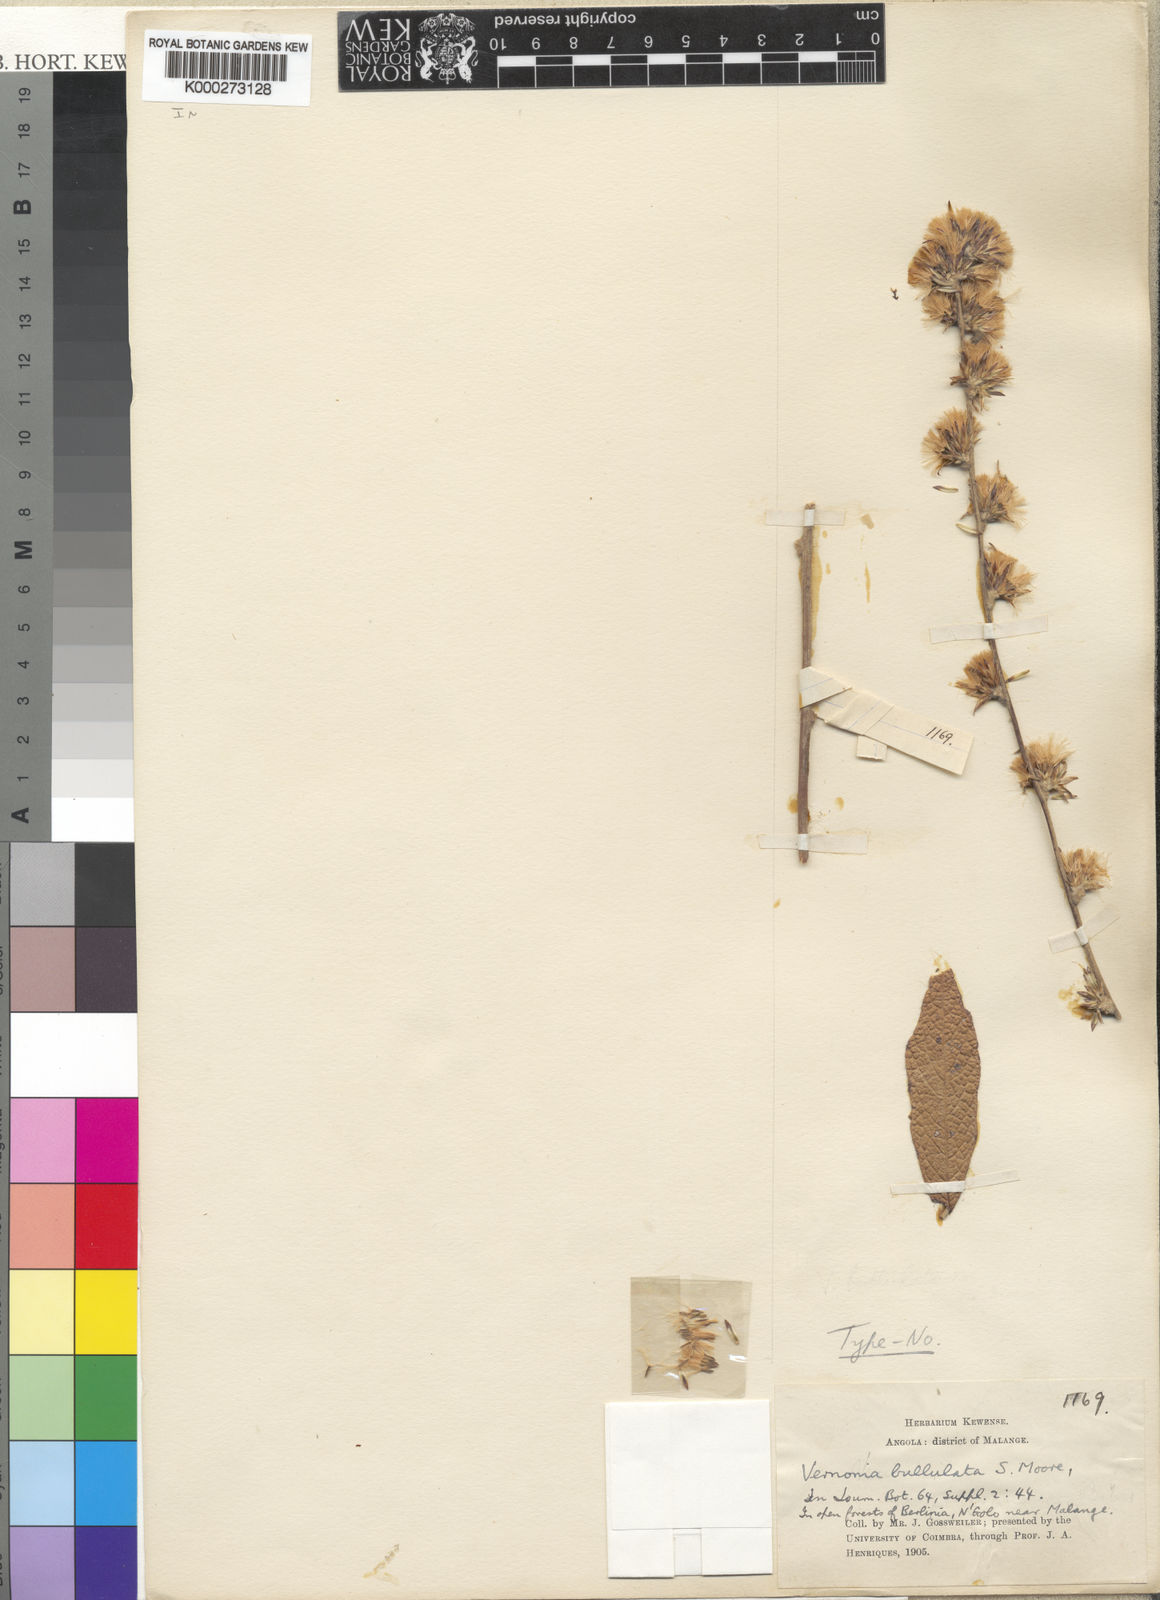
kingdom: Plantae
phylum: Tracheophyta
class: Magnoliopsida
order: Asterales
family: Asteraceae
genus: Cabobanthus
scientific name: Cabobanthus bullulatus
